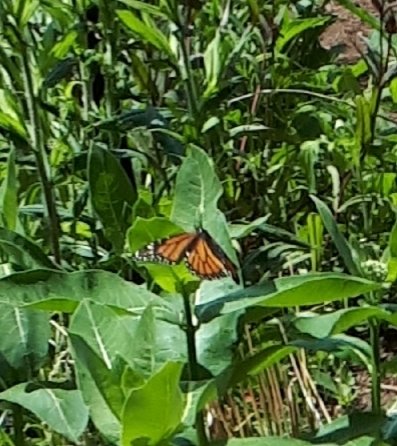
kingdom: Animalia
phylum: Arthropoda
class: Insecta
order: Lepidoptera
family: Nymphalidae
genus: Danaus
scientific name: Danaus plexippus
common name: Monarch
